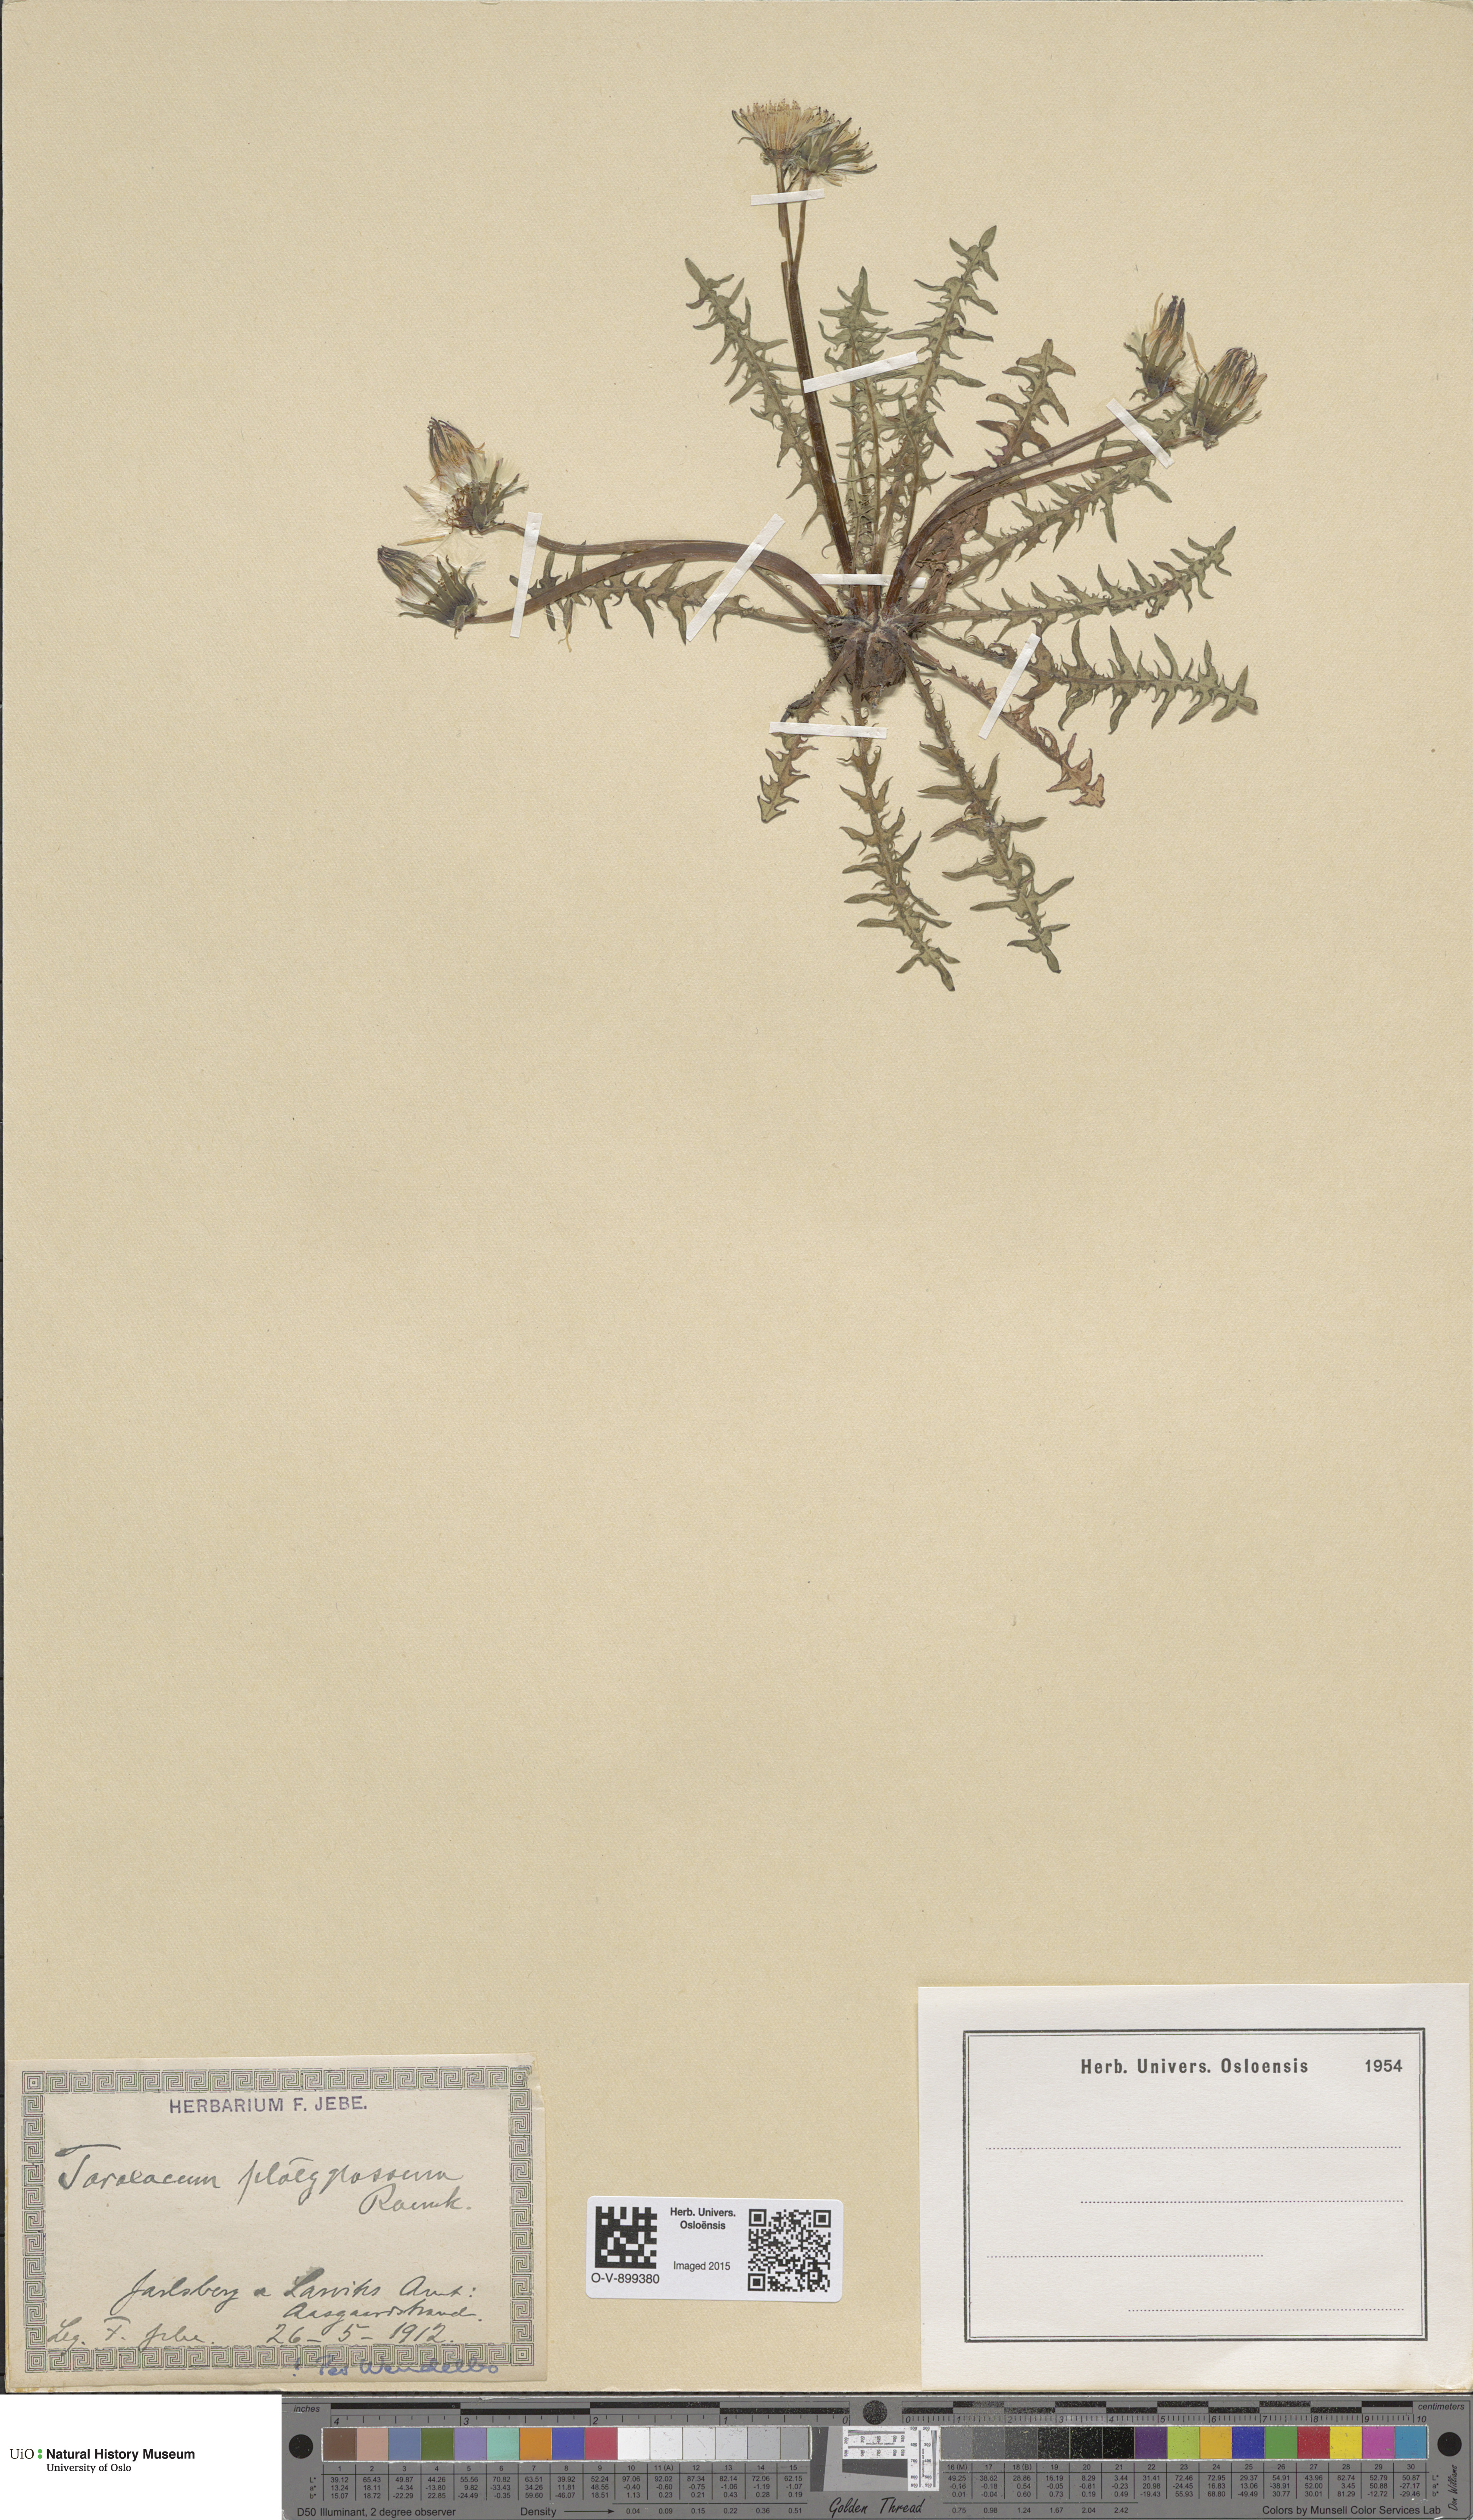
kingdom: Plantae
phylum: Tracheophyta
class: Magnoliopsida
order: Asterales
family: Asteraceae
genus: Taraxacum
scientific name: Taraxacum platyglossum
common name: Tongue-leaved dandelion
